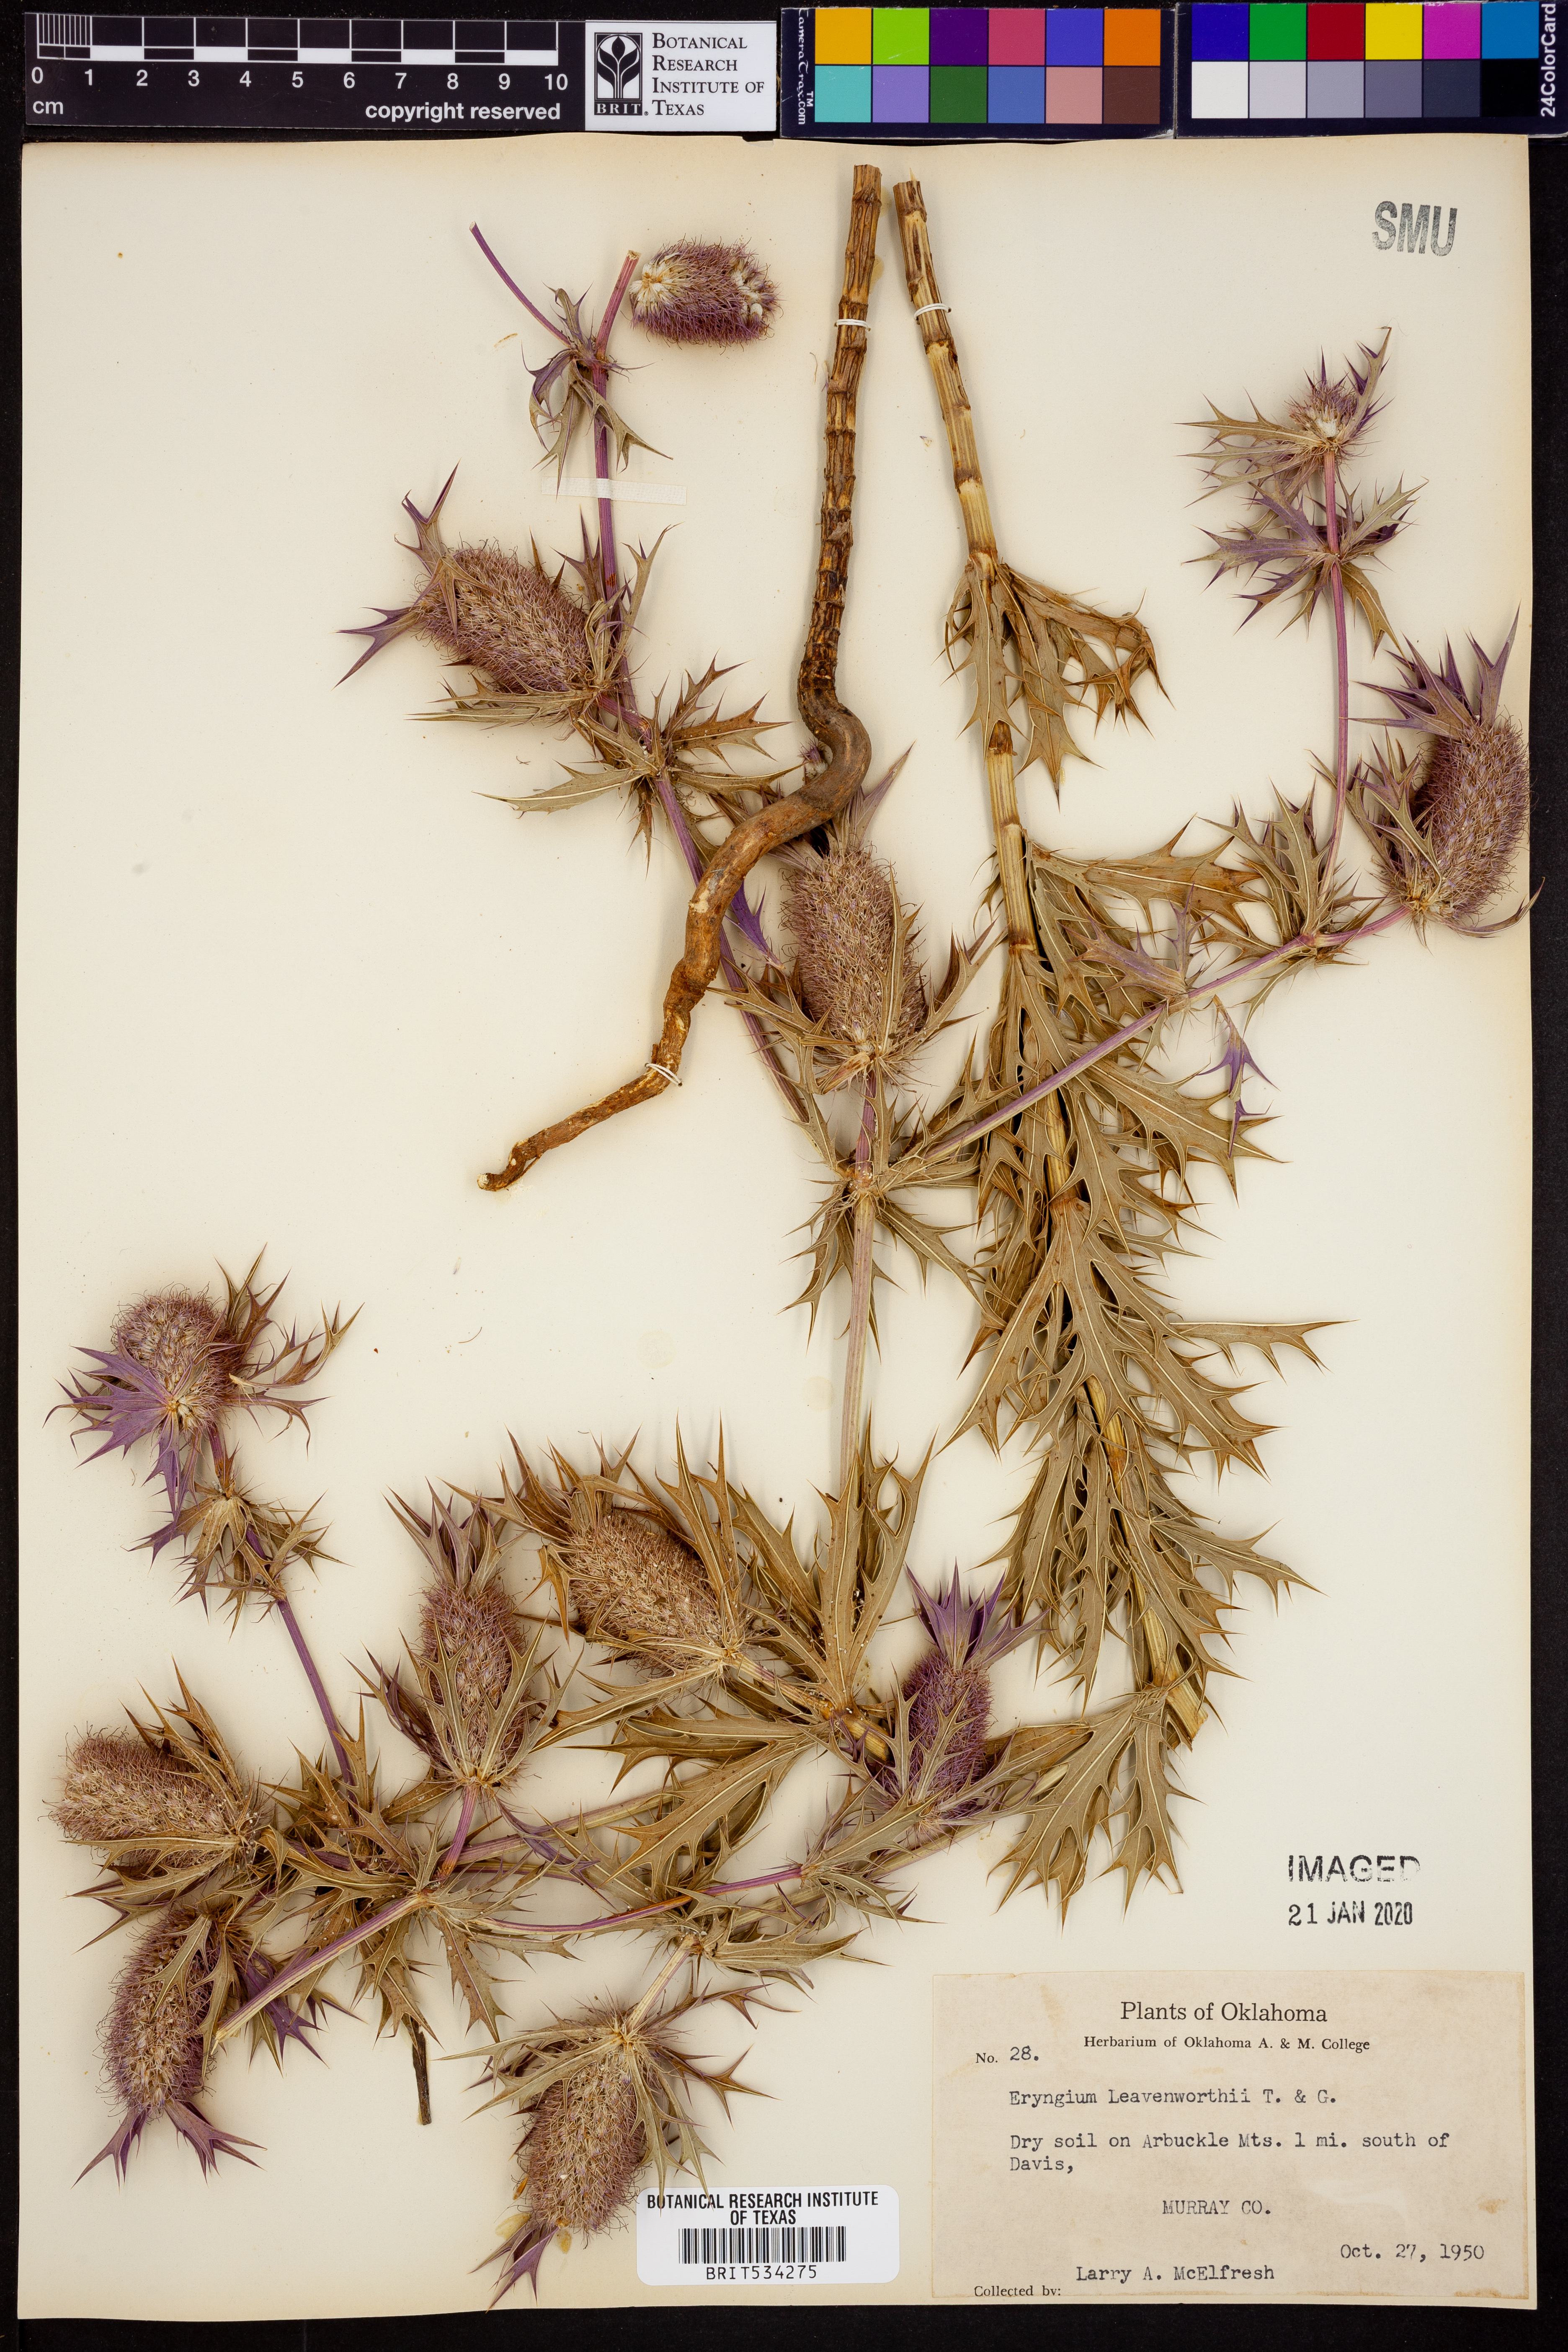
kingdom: Plantae
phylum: Tracheophyta
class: Magnoliopsida
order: Apiales
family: Apiaceae
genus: Eryngium
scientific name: Eryngium leavenworthii
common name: Leavenworth's eryngo
